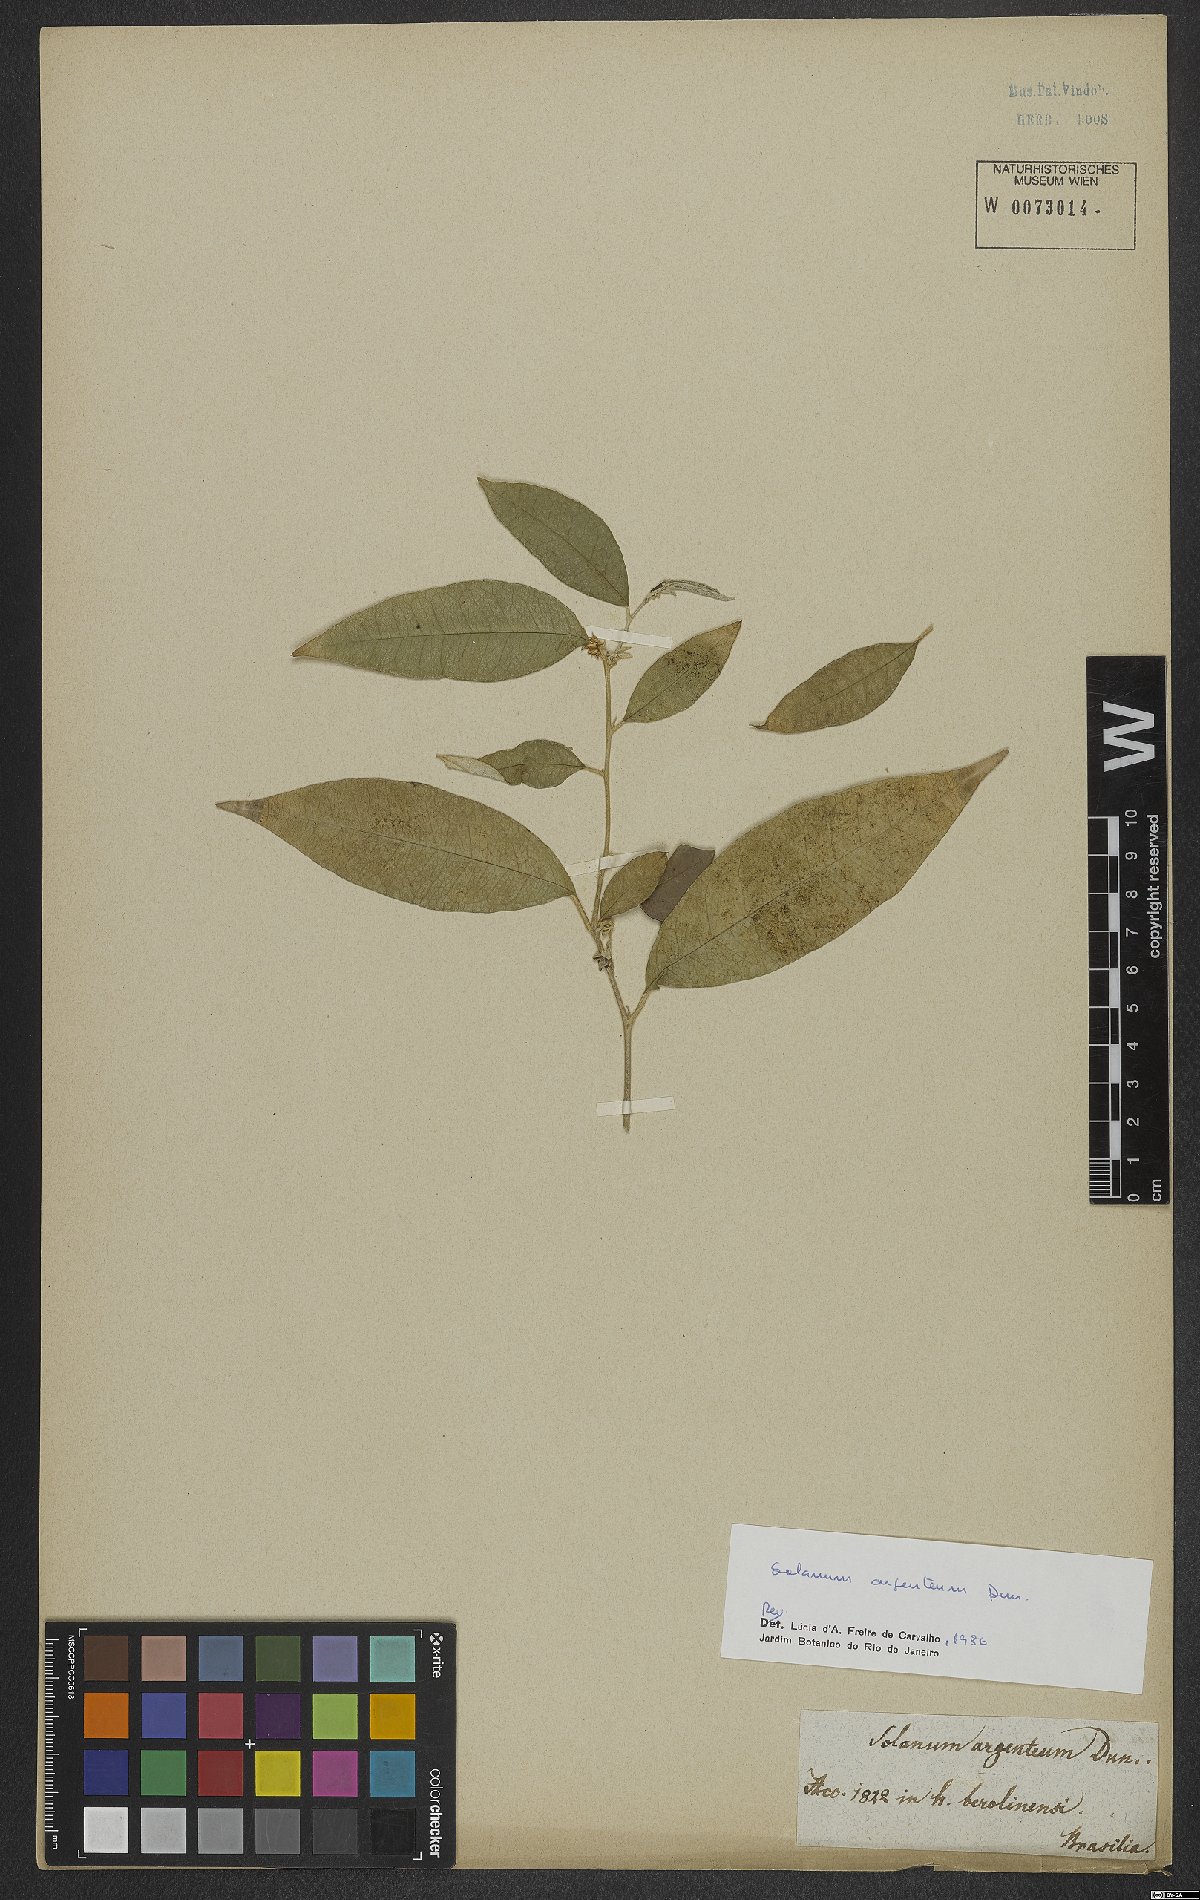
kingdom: Plantae
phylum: Tracheophyta
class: Magnoliopsida
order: Solanales
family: Solanaceae
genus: Solanum
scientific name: Solanum swartzianum
